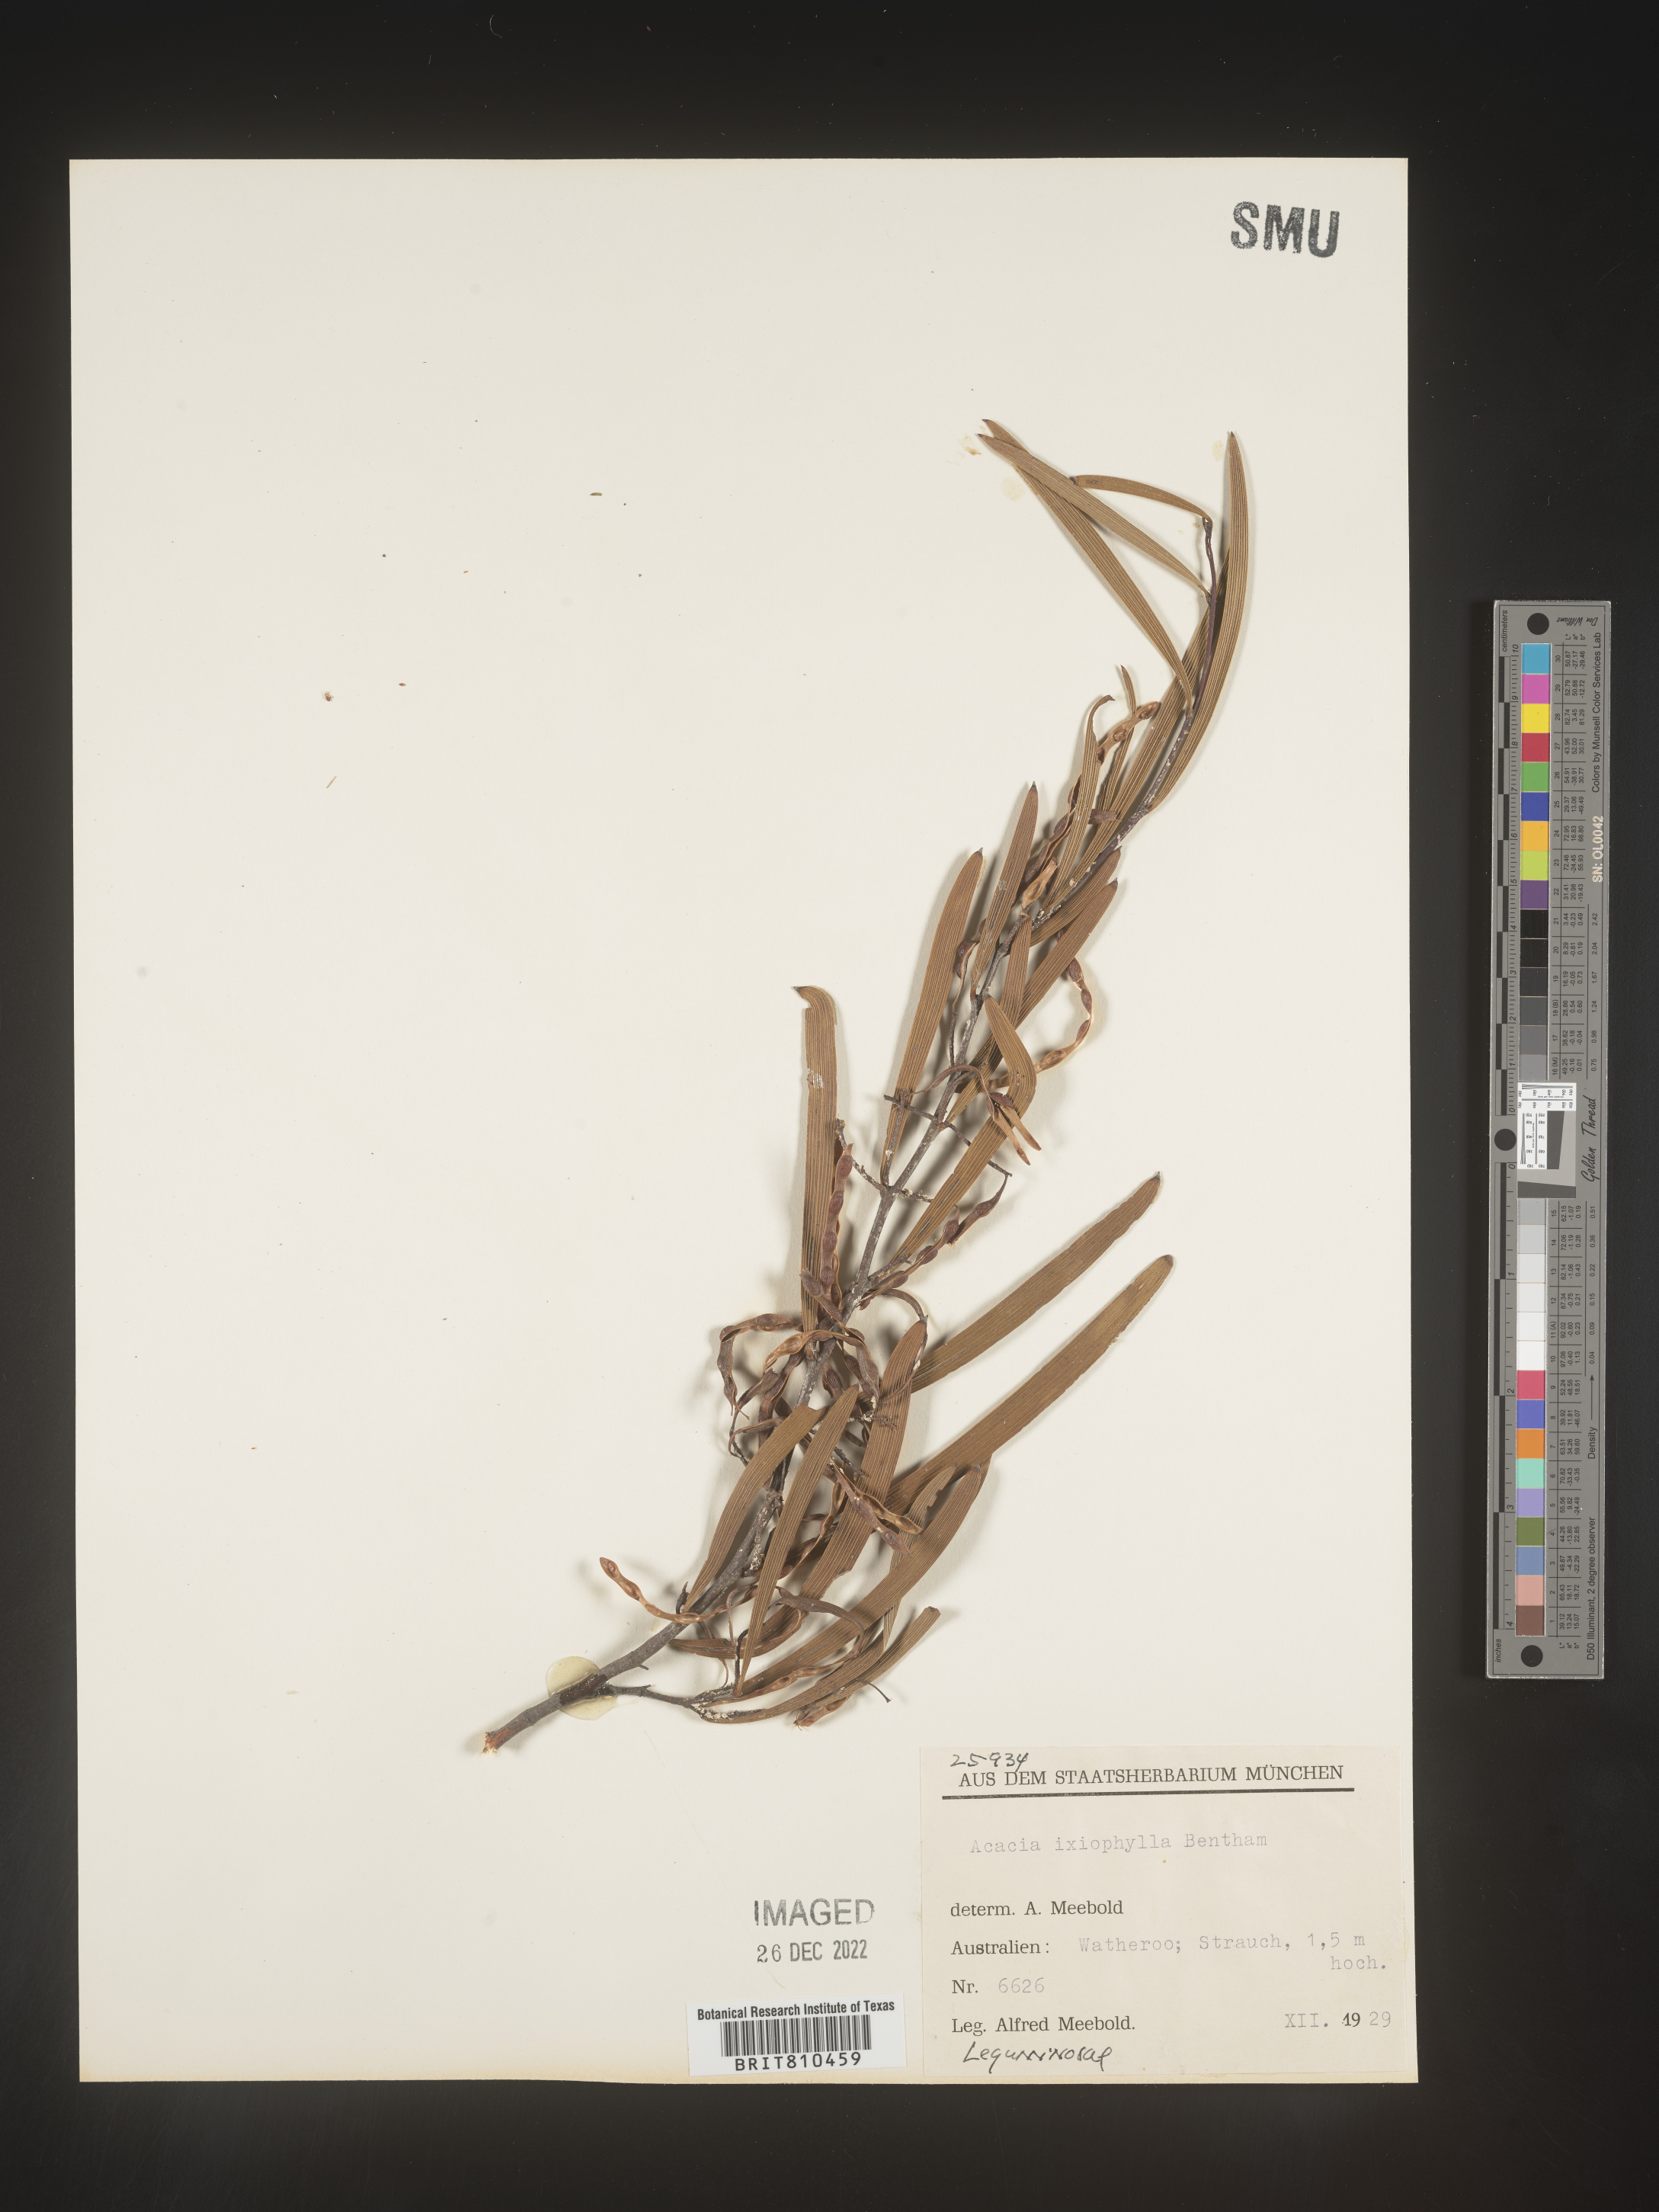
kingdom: Plantae
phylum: Tracheophyta
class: Magnoliopsida
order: Fabales
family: Fabaceae
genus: Acacia
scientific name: Acacia
